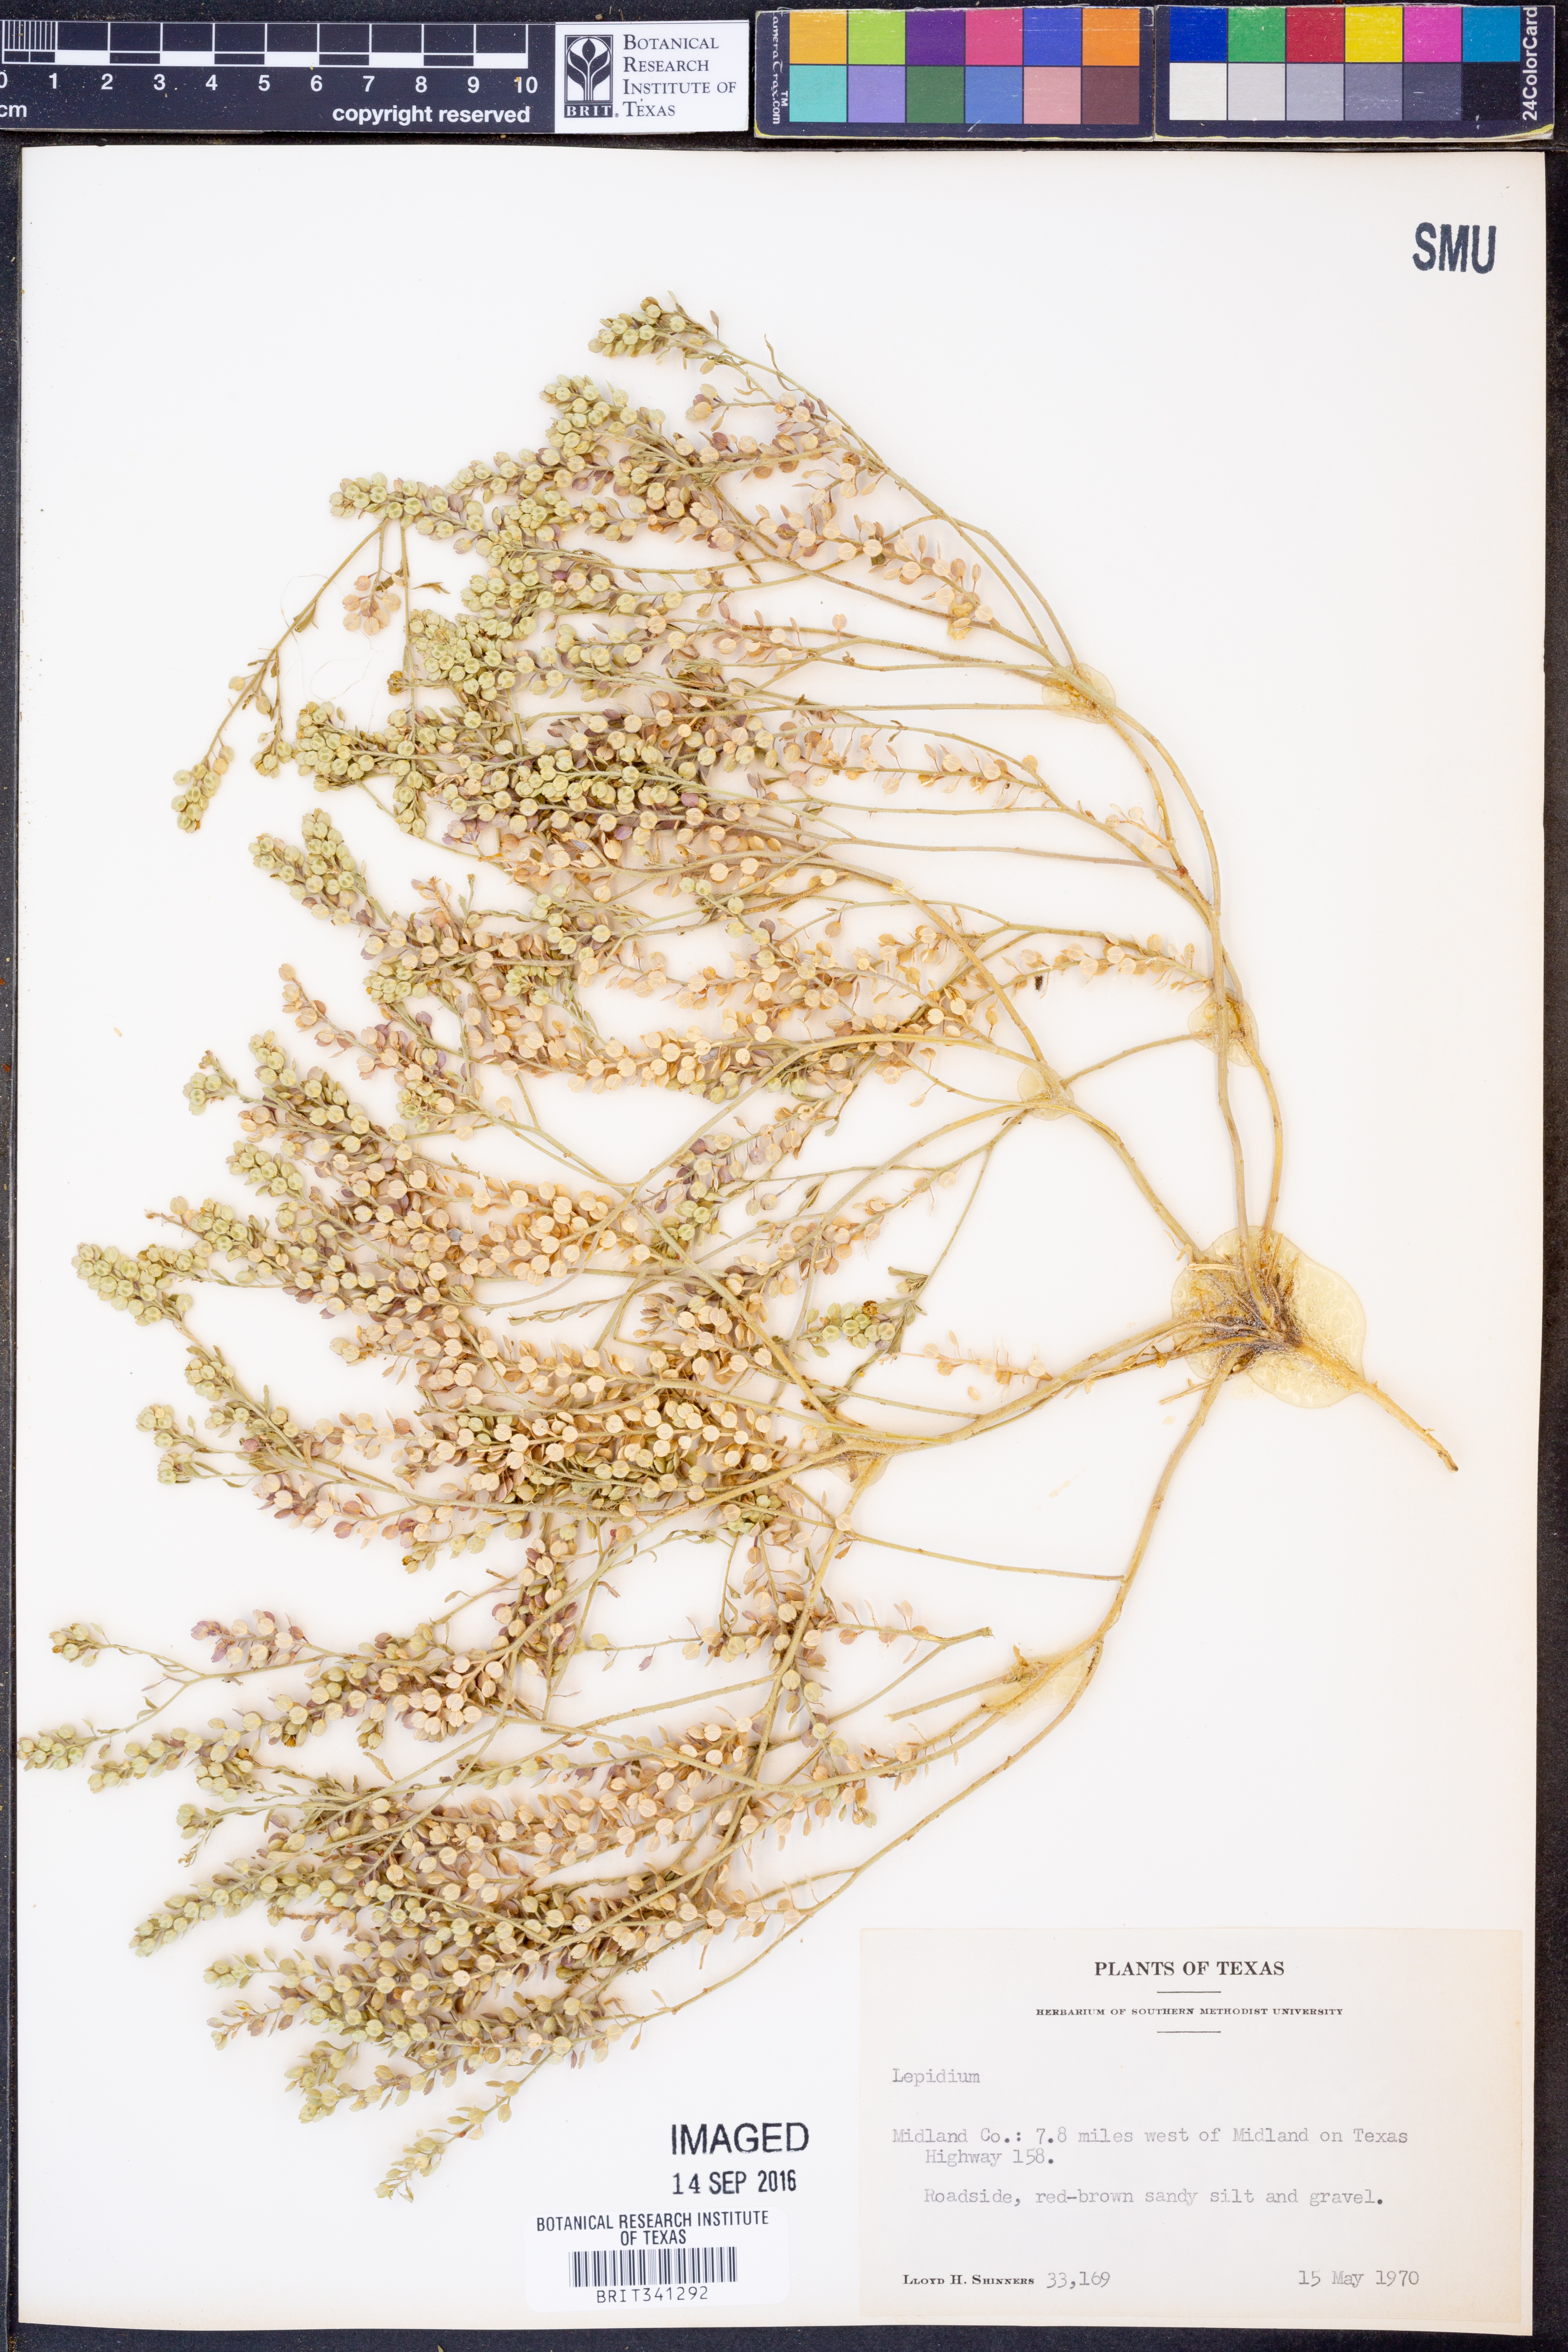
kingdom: Plantae
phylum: Tracheophyta
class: Magnoliopsida
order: Brassicales
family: Brassicaceae
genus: Lepidium
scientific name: Lepidium
